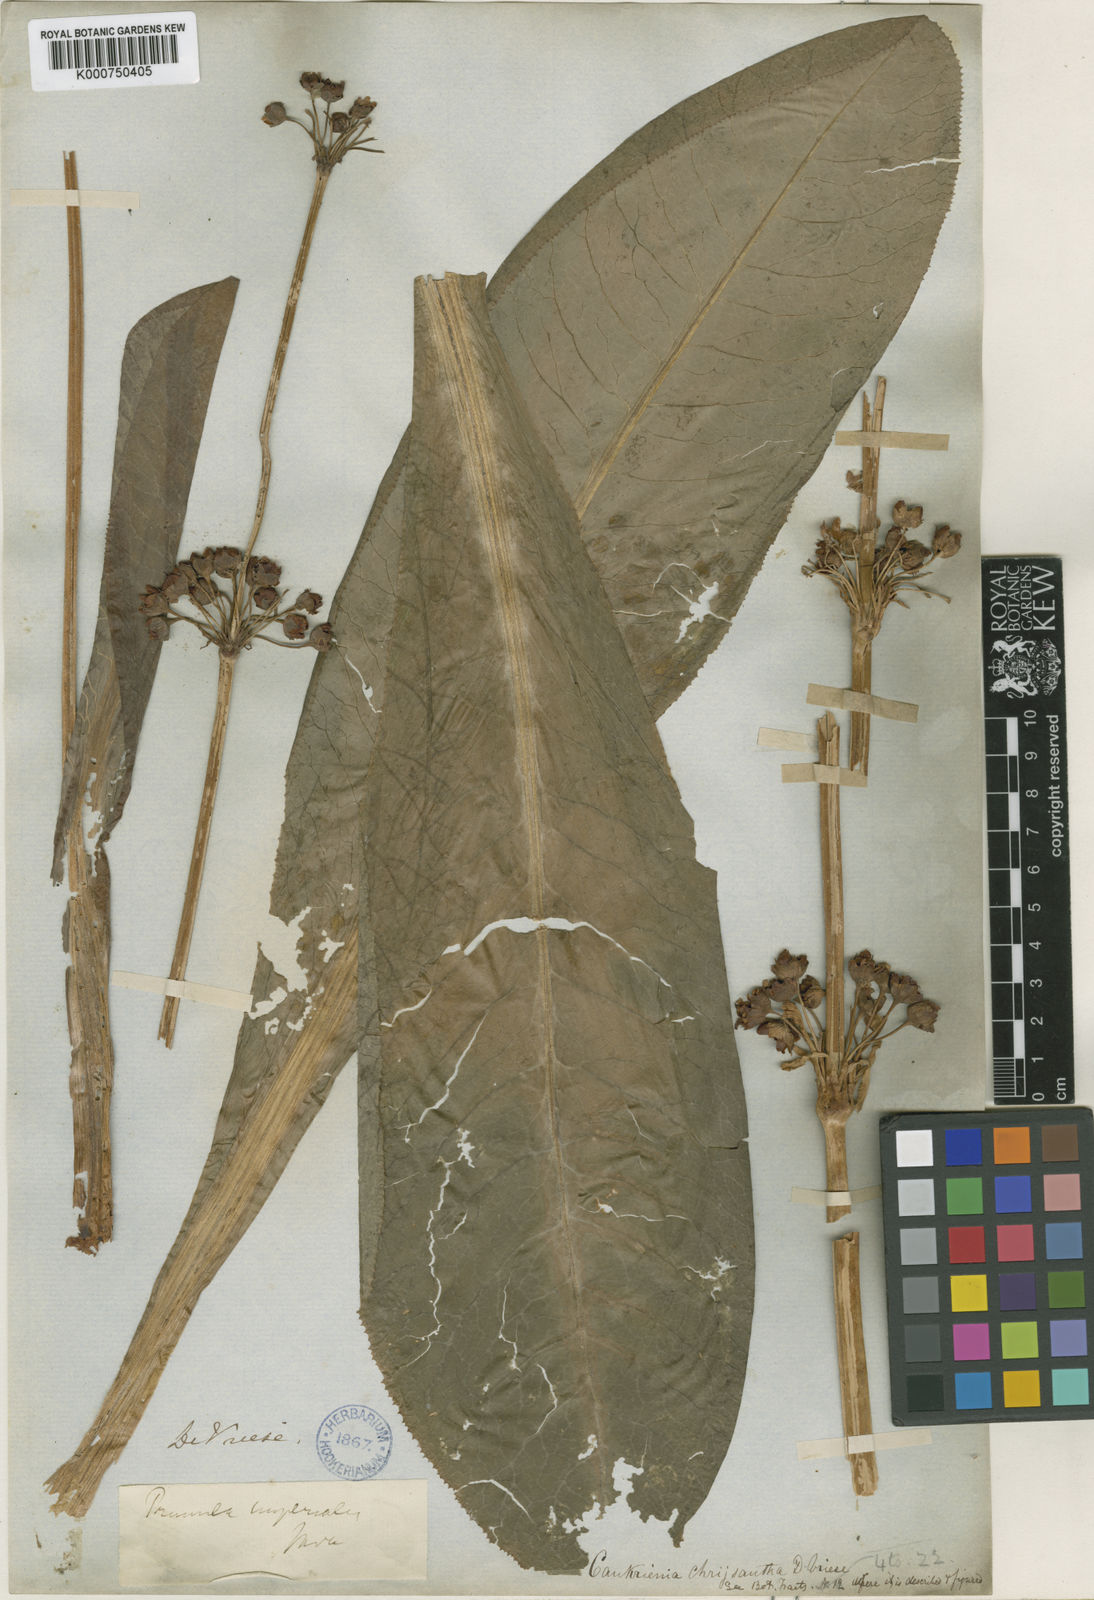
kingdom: Plantae
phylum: Tracheophyta
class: Magnoliopsida
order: Ericales
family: Primulaceae
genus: Primula
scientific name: Primula prolifera
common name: Glory-of-the-marsh
